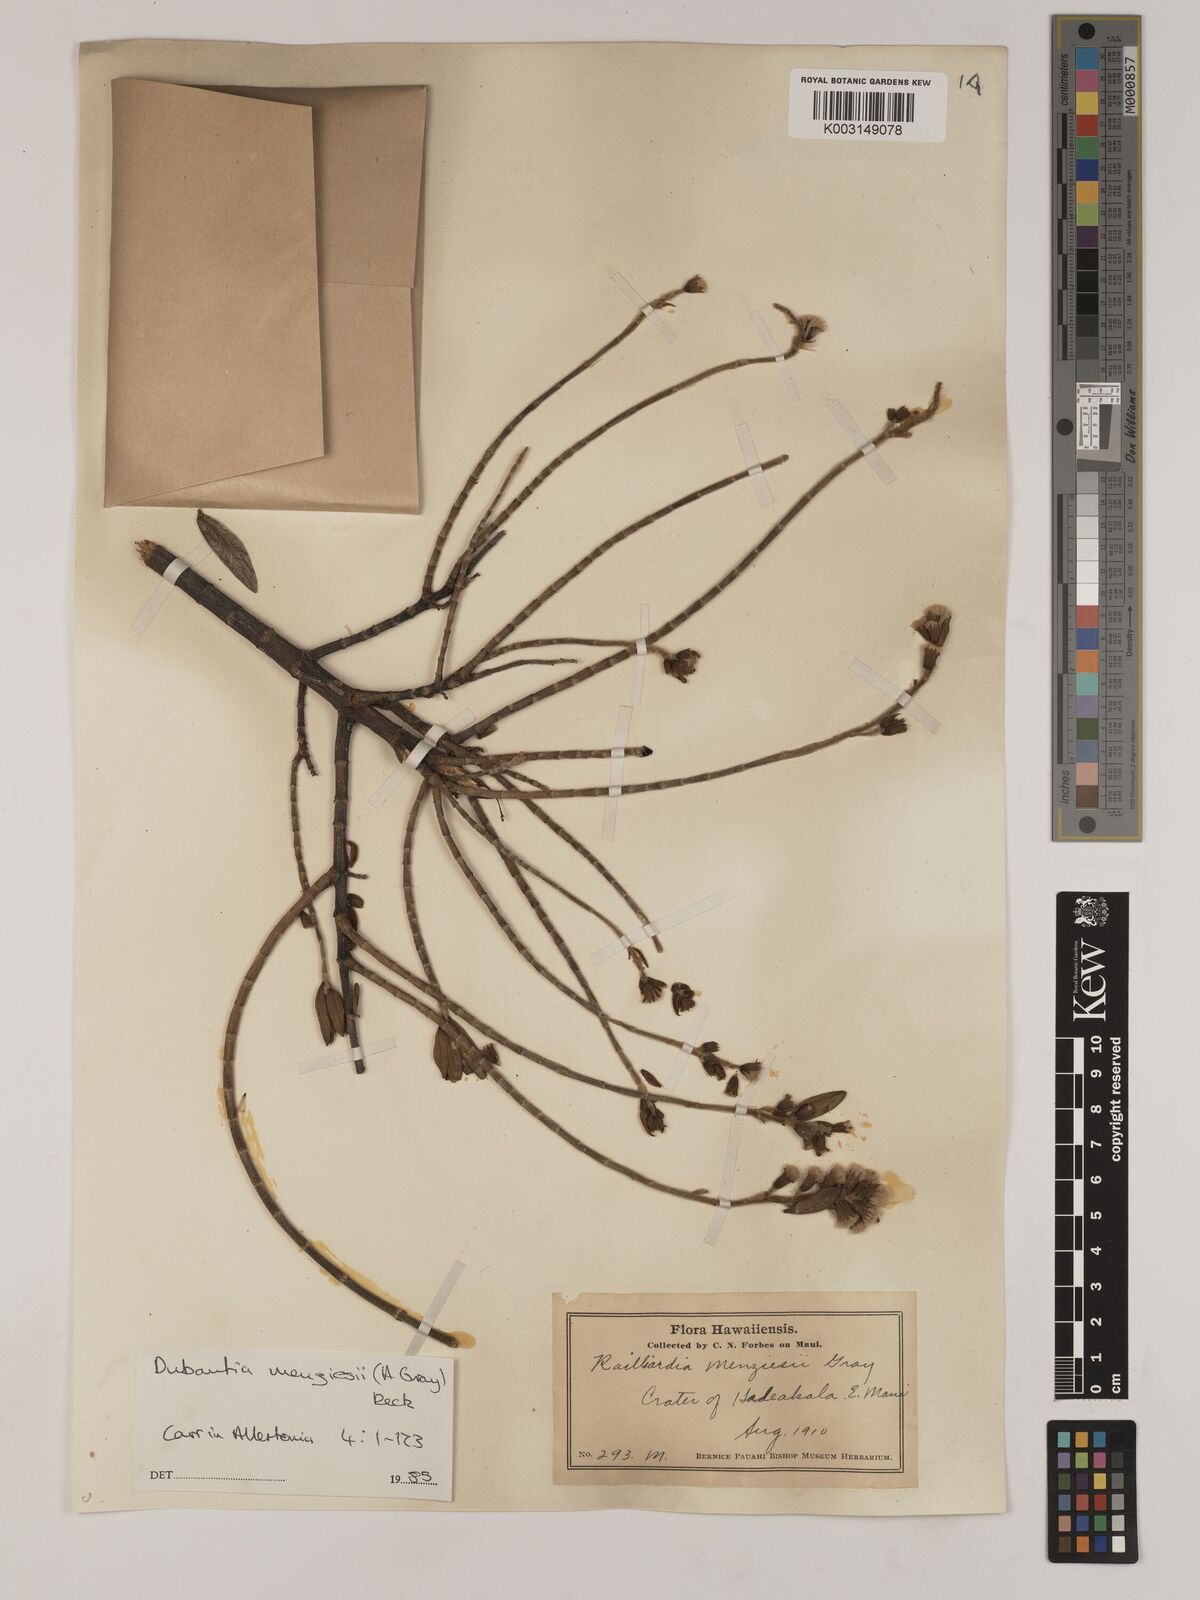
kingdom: Plantae
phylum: Tracheophyta
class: Magnoliopsida
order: Asterales
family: Asteraceae
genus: Dubautia
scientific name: Dubautia menziesii
